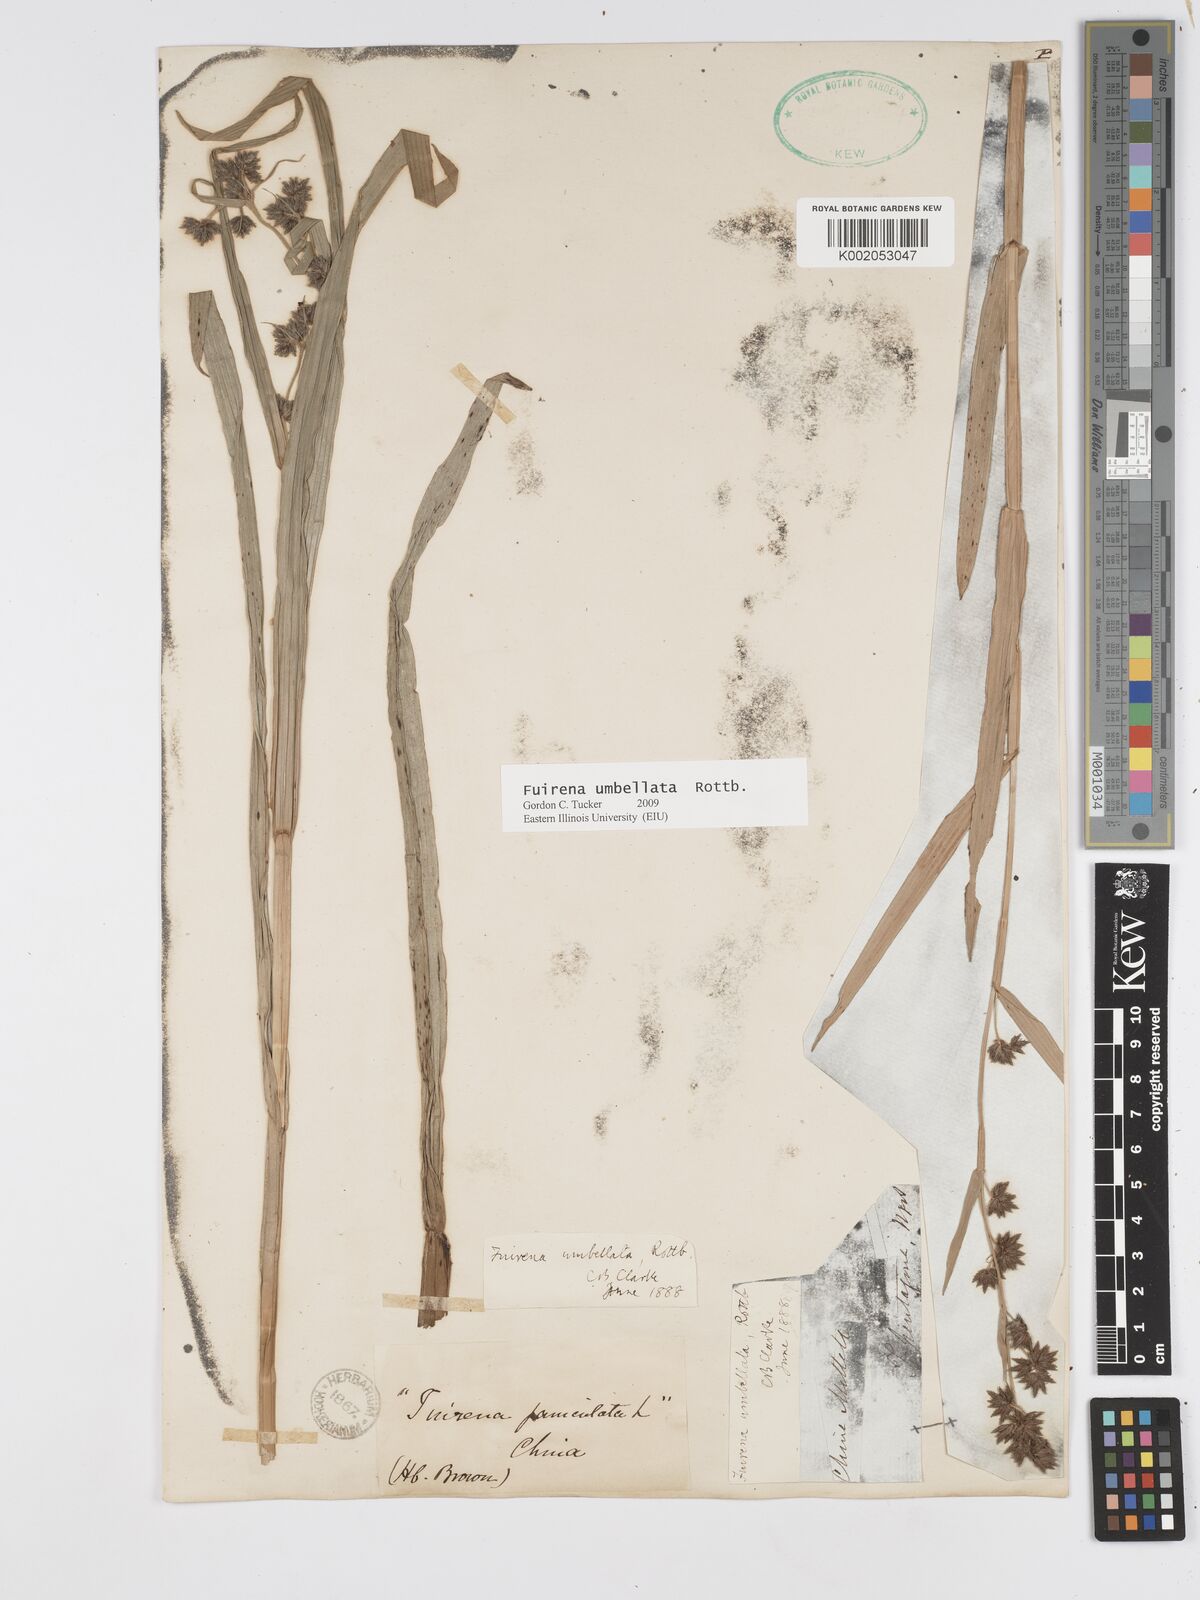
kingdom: Plantae
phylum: Tracheophyta
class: Liliopsida
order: Poales
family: Cyperaceae
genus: Fuirena
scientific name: Fuirena umbellata
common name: Yefen
